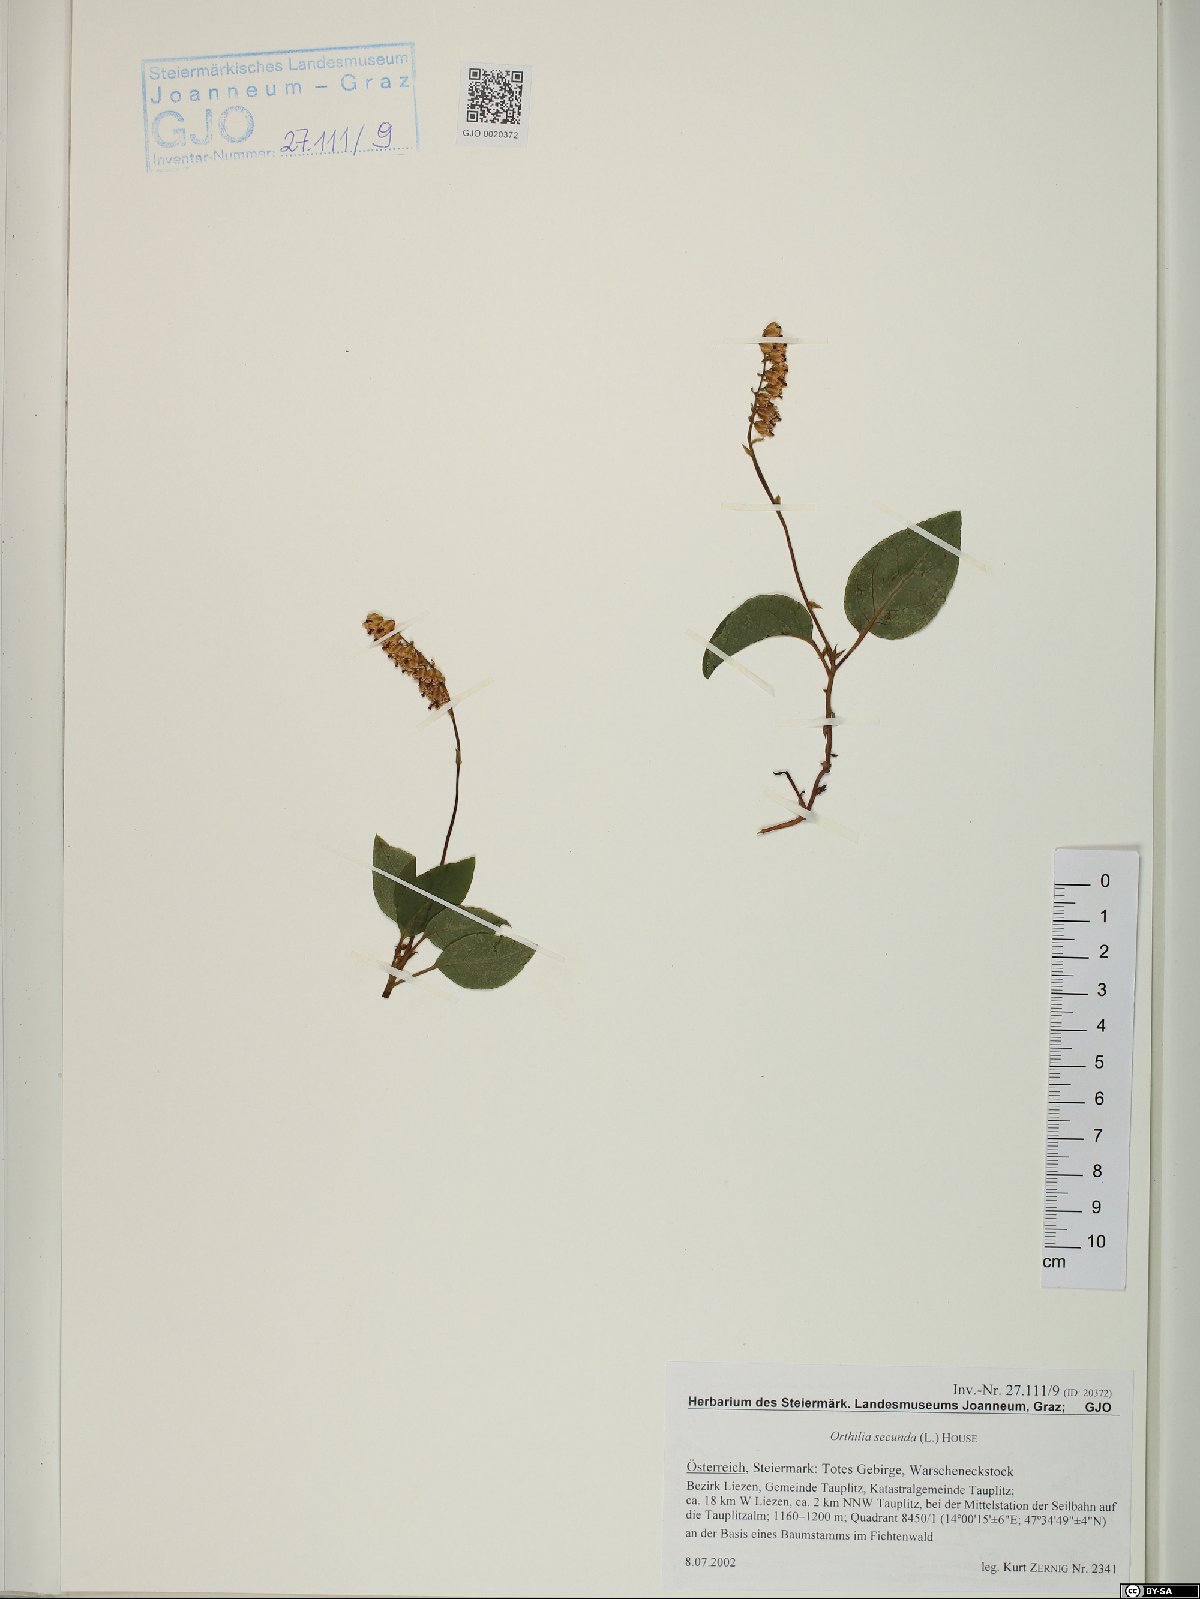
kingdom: Plantae
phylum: Tracheophyta
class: Magnoliopsida
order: Ericales
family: Ericaceae
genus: Orthilia
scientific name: Orthilia secunda
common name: One-sided orthilia
